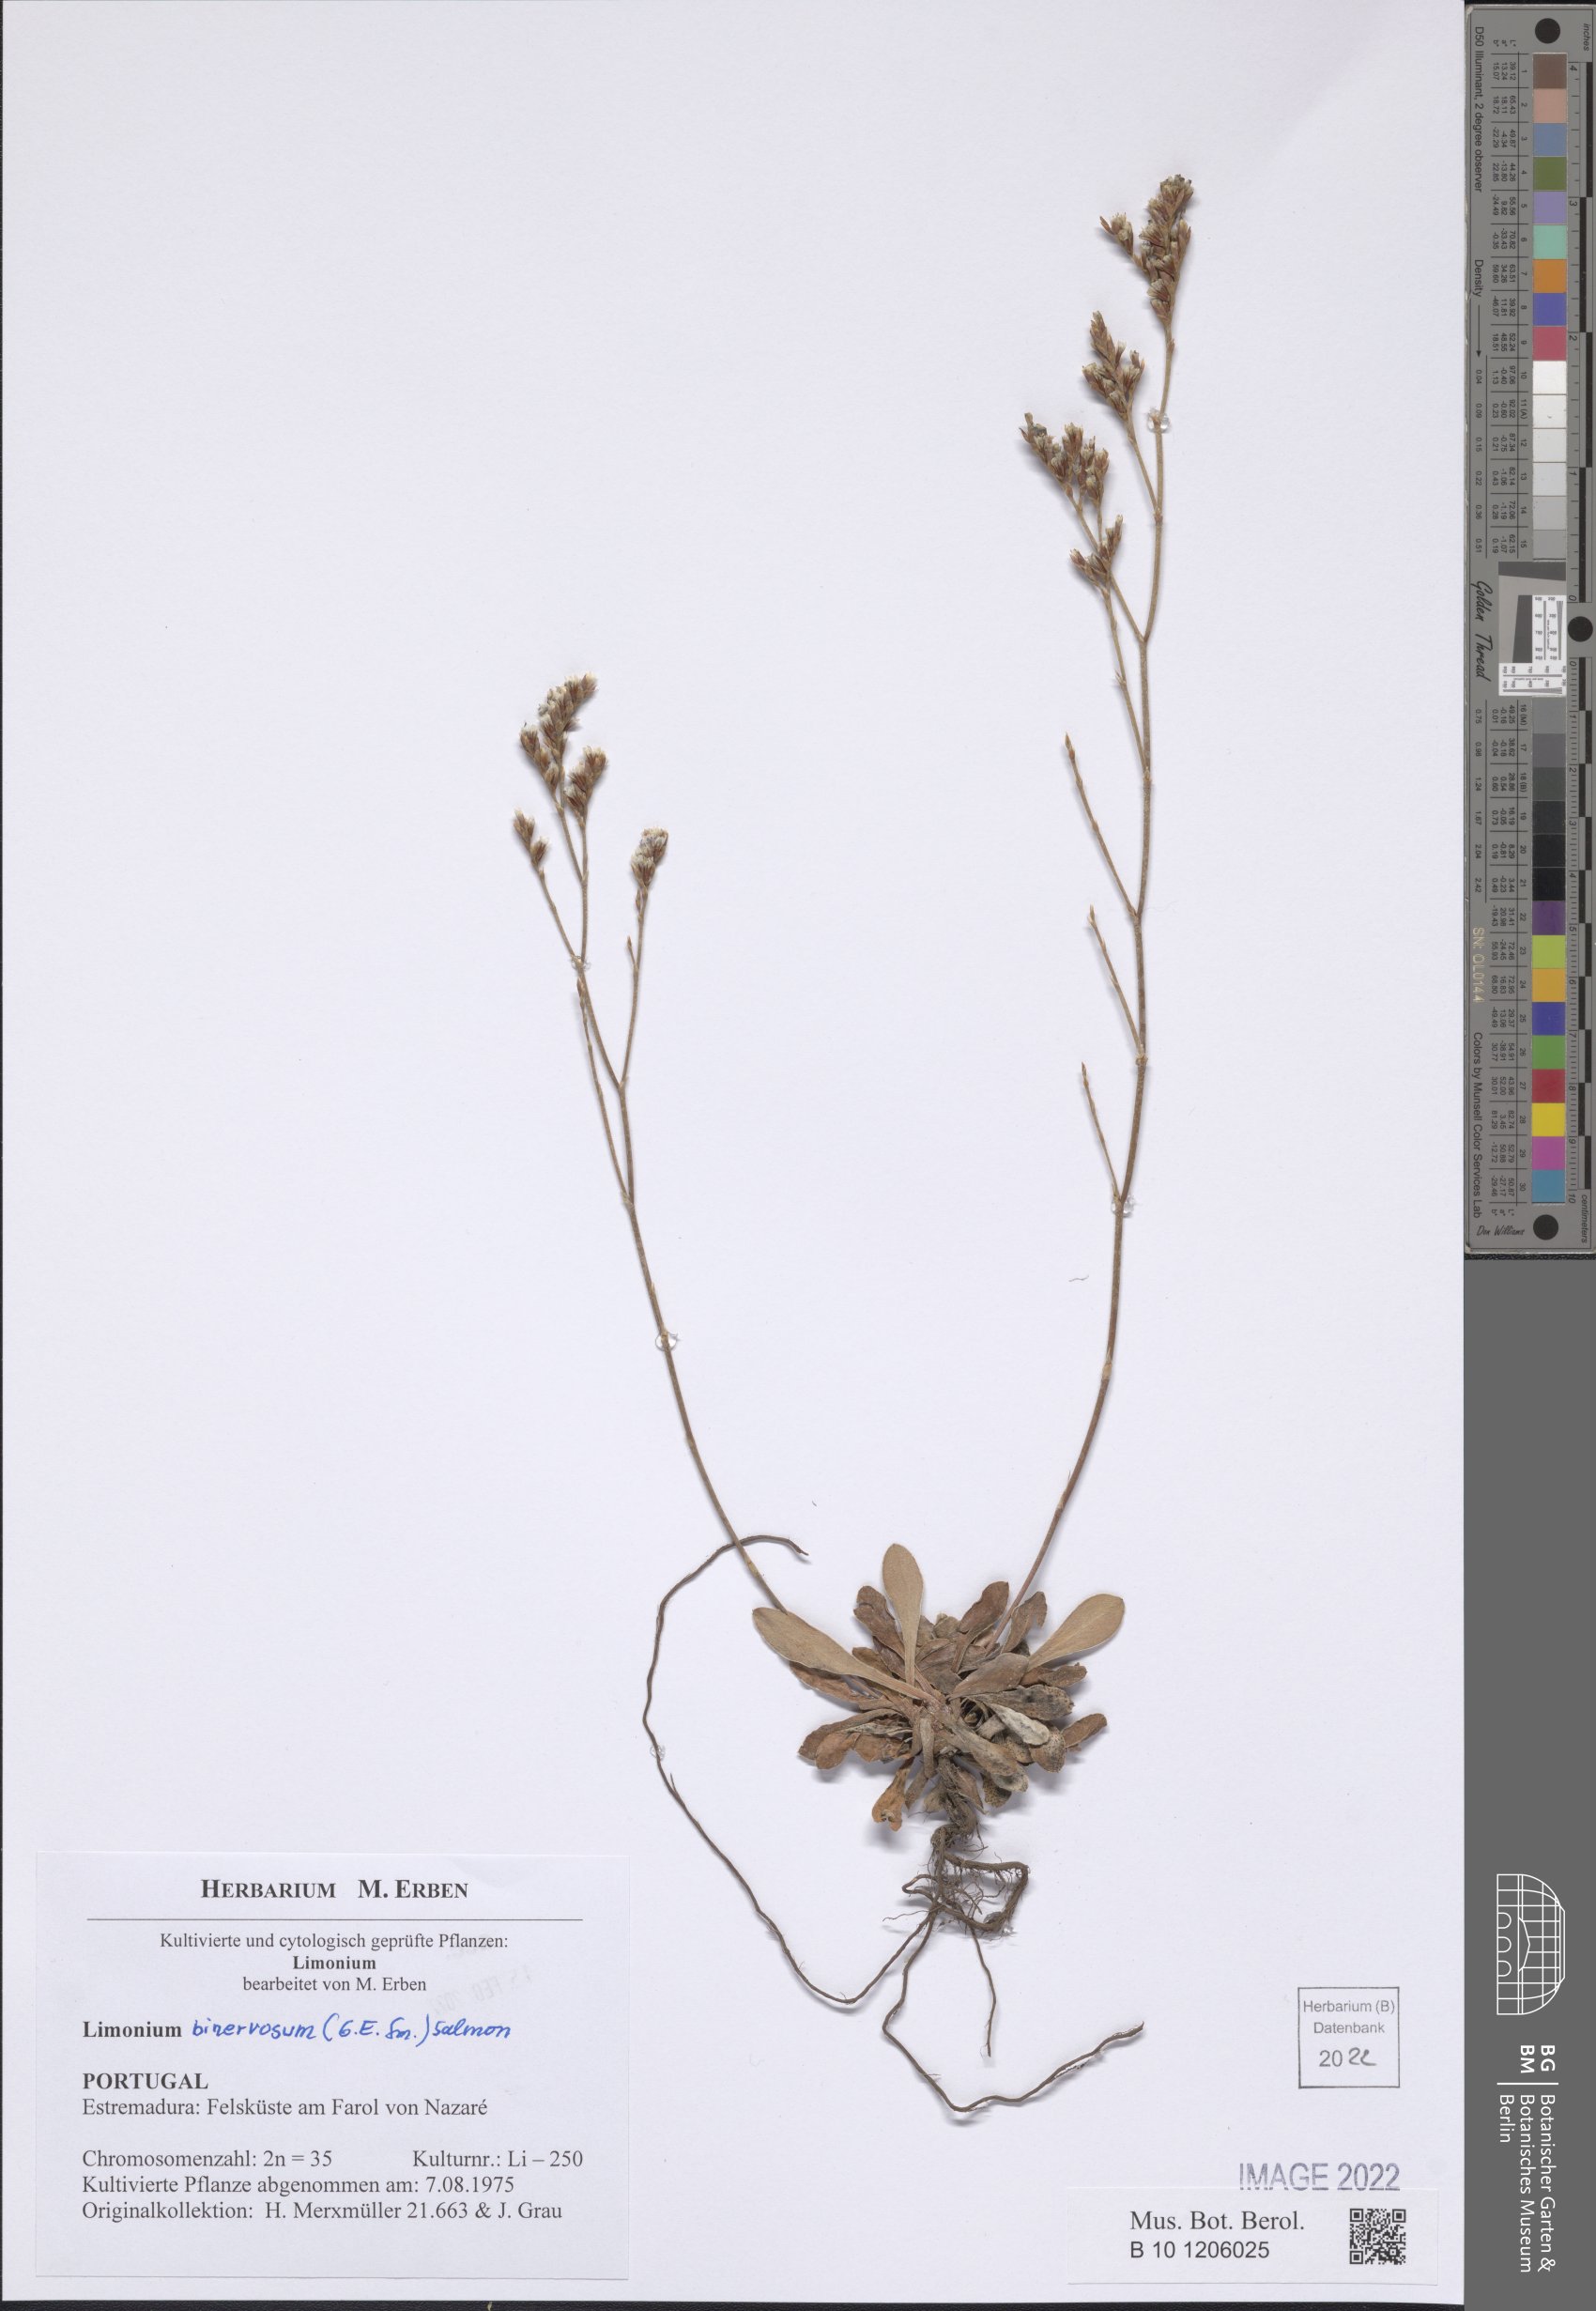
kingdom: Plantae
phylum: Tracheophyta
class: Magnoliopsida
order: Caryophyllales
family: Plumbaginaceae
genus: Limonium
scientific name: Limonium binervosum
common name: Rock sea-lavender
